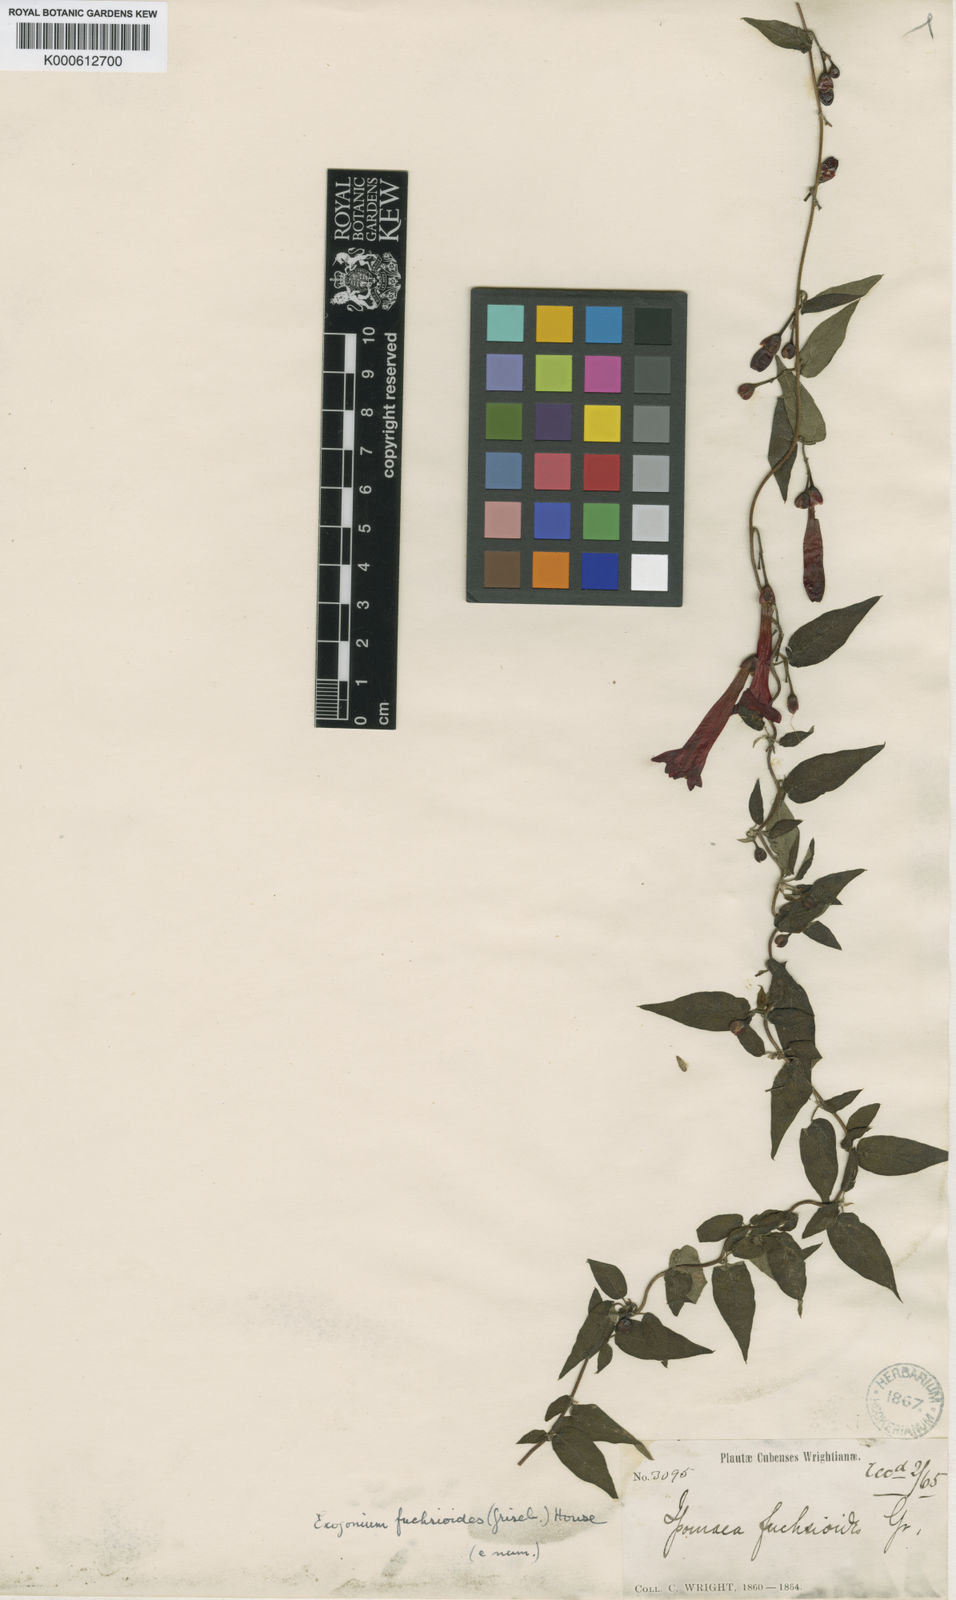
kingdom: Plantae
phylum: Tracheophyta
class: Magnoliopsida
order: Solanales
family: Convolvulaceae
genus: Ipomoea
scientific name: Ipomoea fuchsioides
